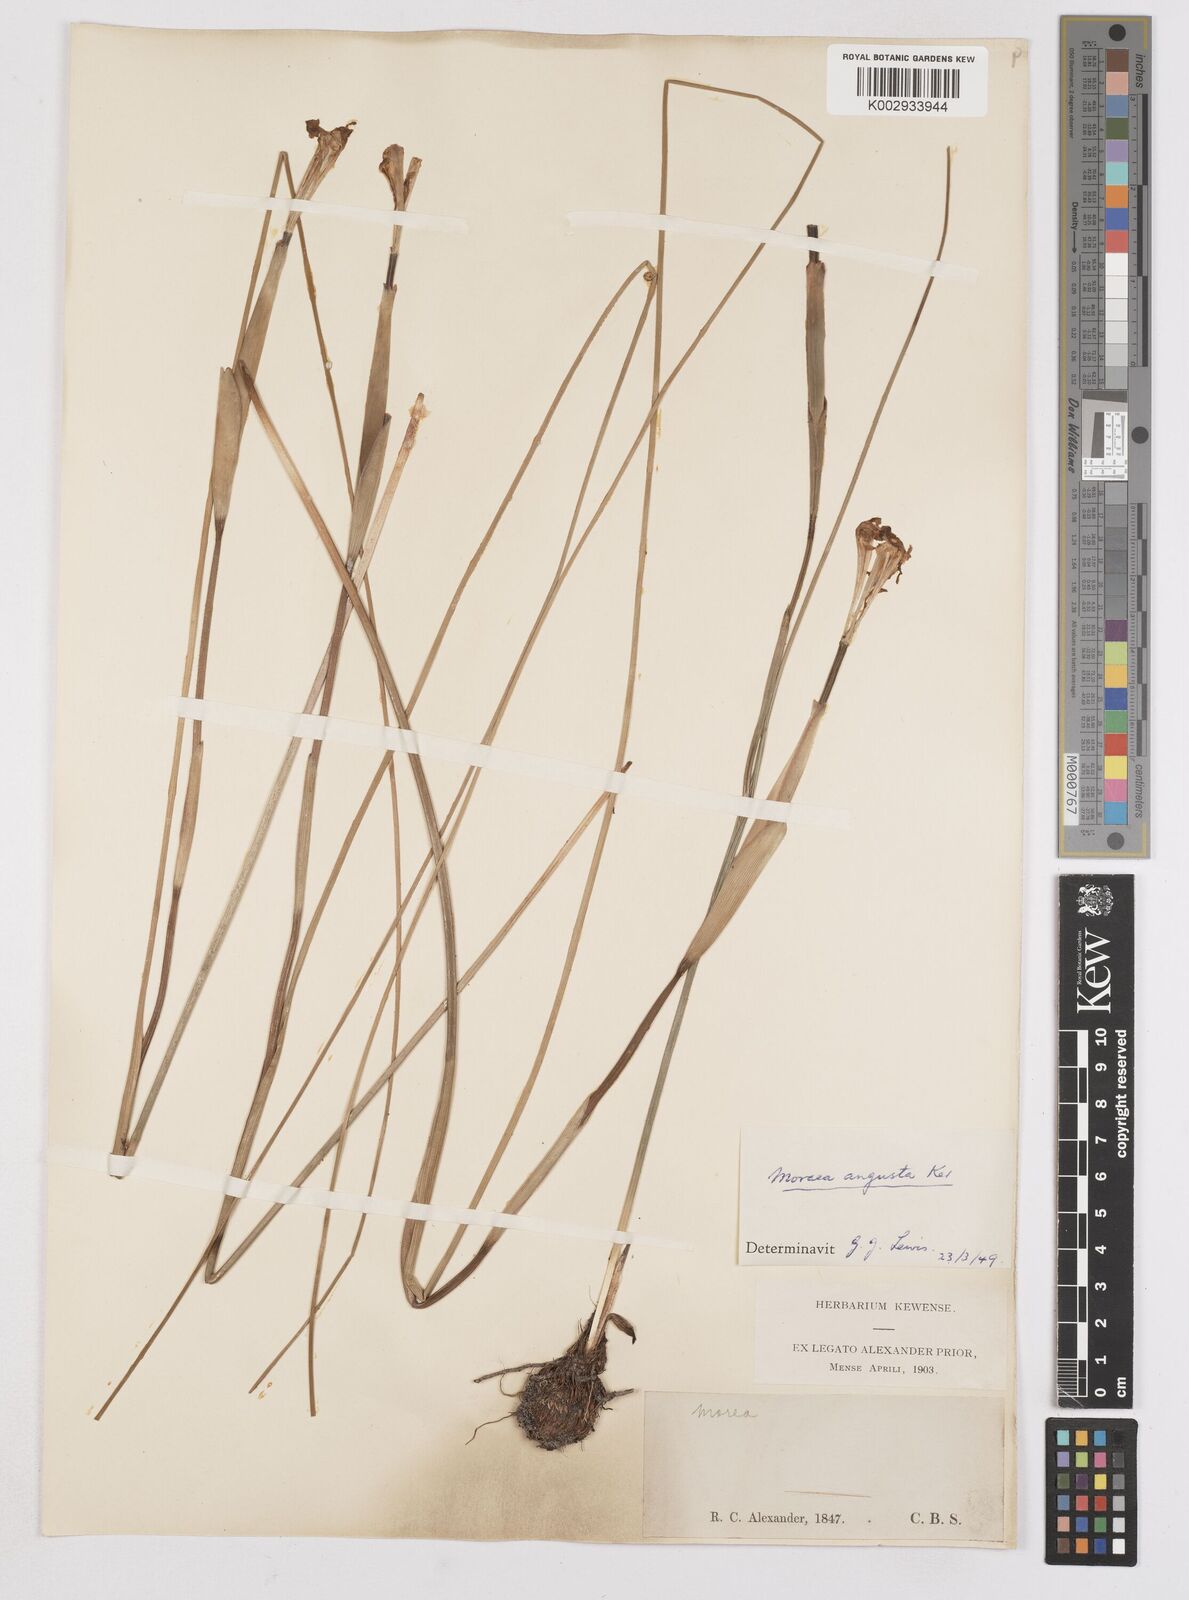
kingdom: Plantae
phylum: Tracheophyta
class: Liliopsida
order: Asparagales
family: Iridaceae
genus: Moraea
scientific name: Moraea angusta
